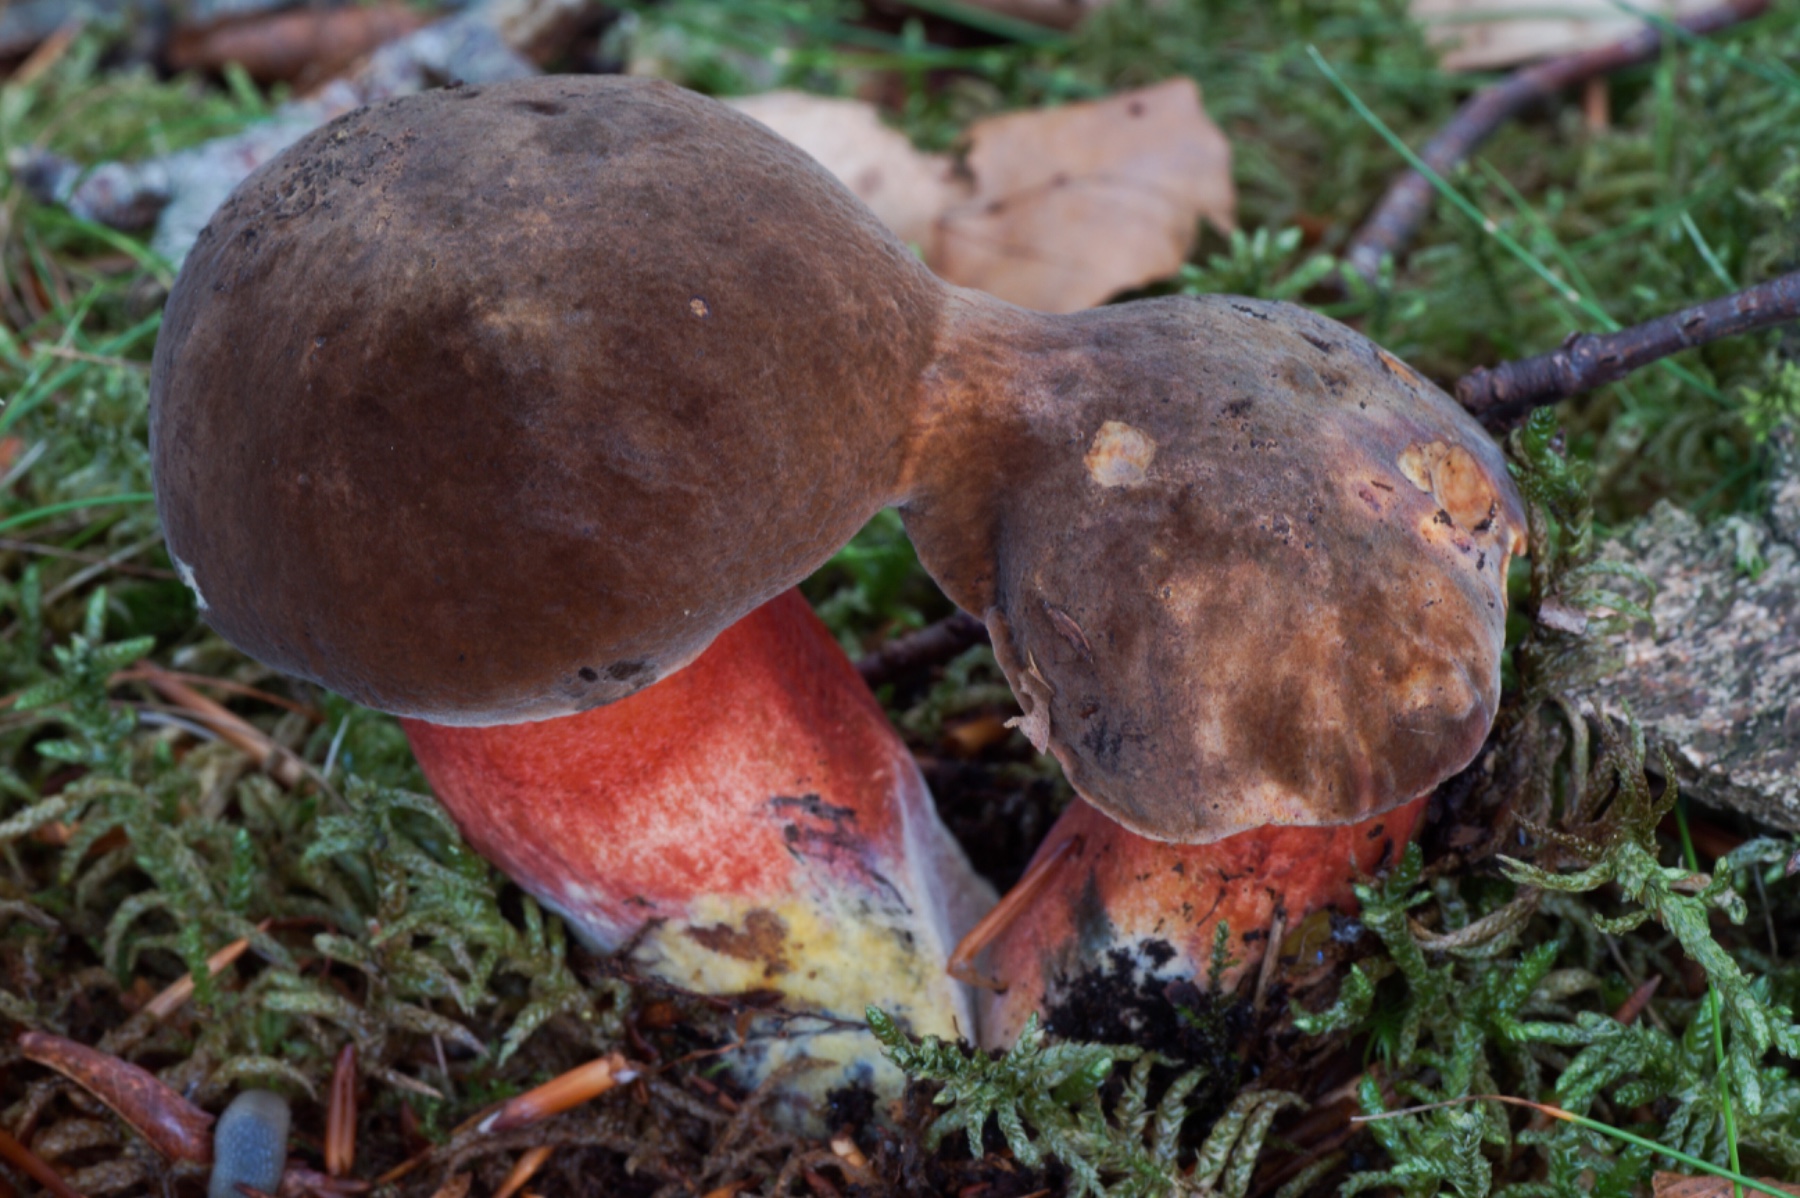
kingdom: Fungi
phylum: Basidiomycota
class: Agaricomycetes
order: Boletales
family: Boletaceae
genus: Neoboletus
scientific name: Neoboletus erythropus
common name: punktstokket indigorørhat
